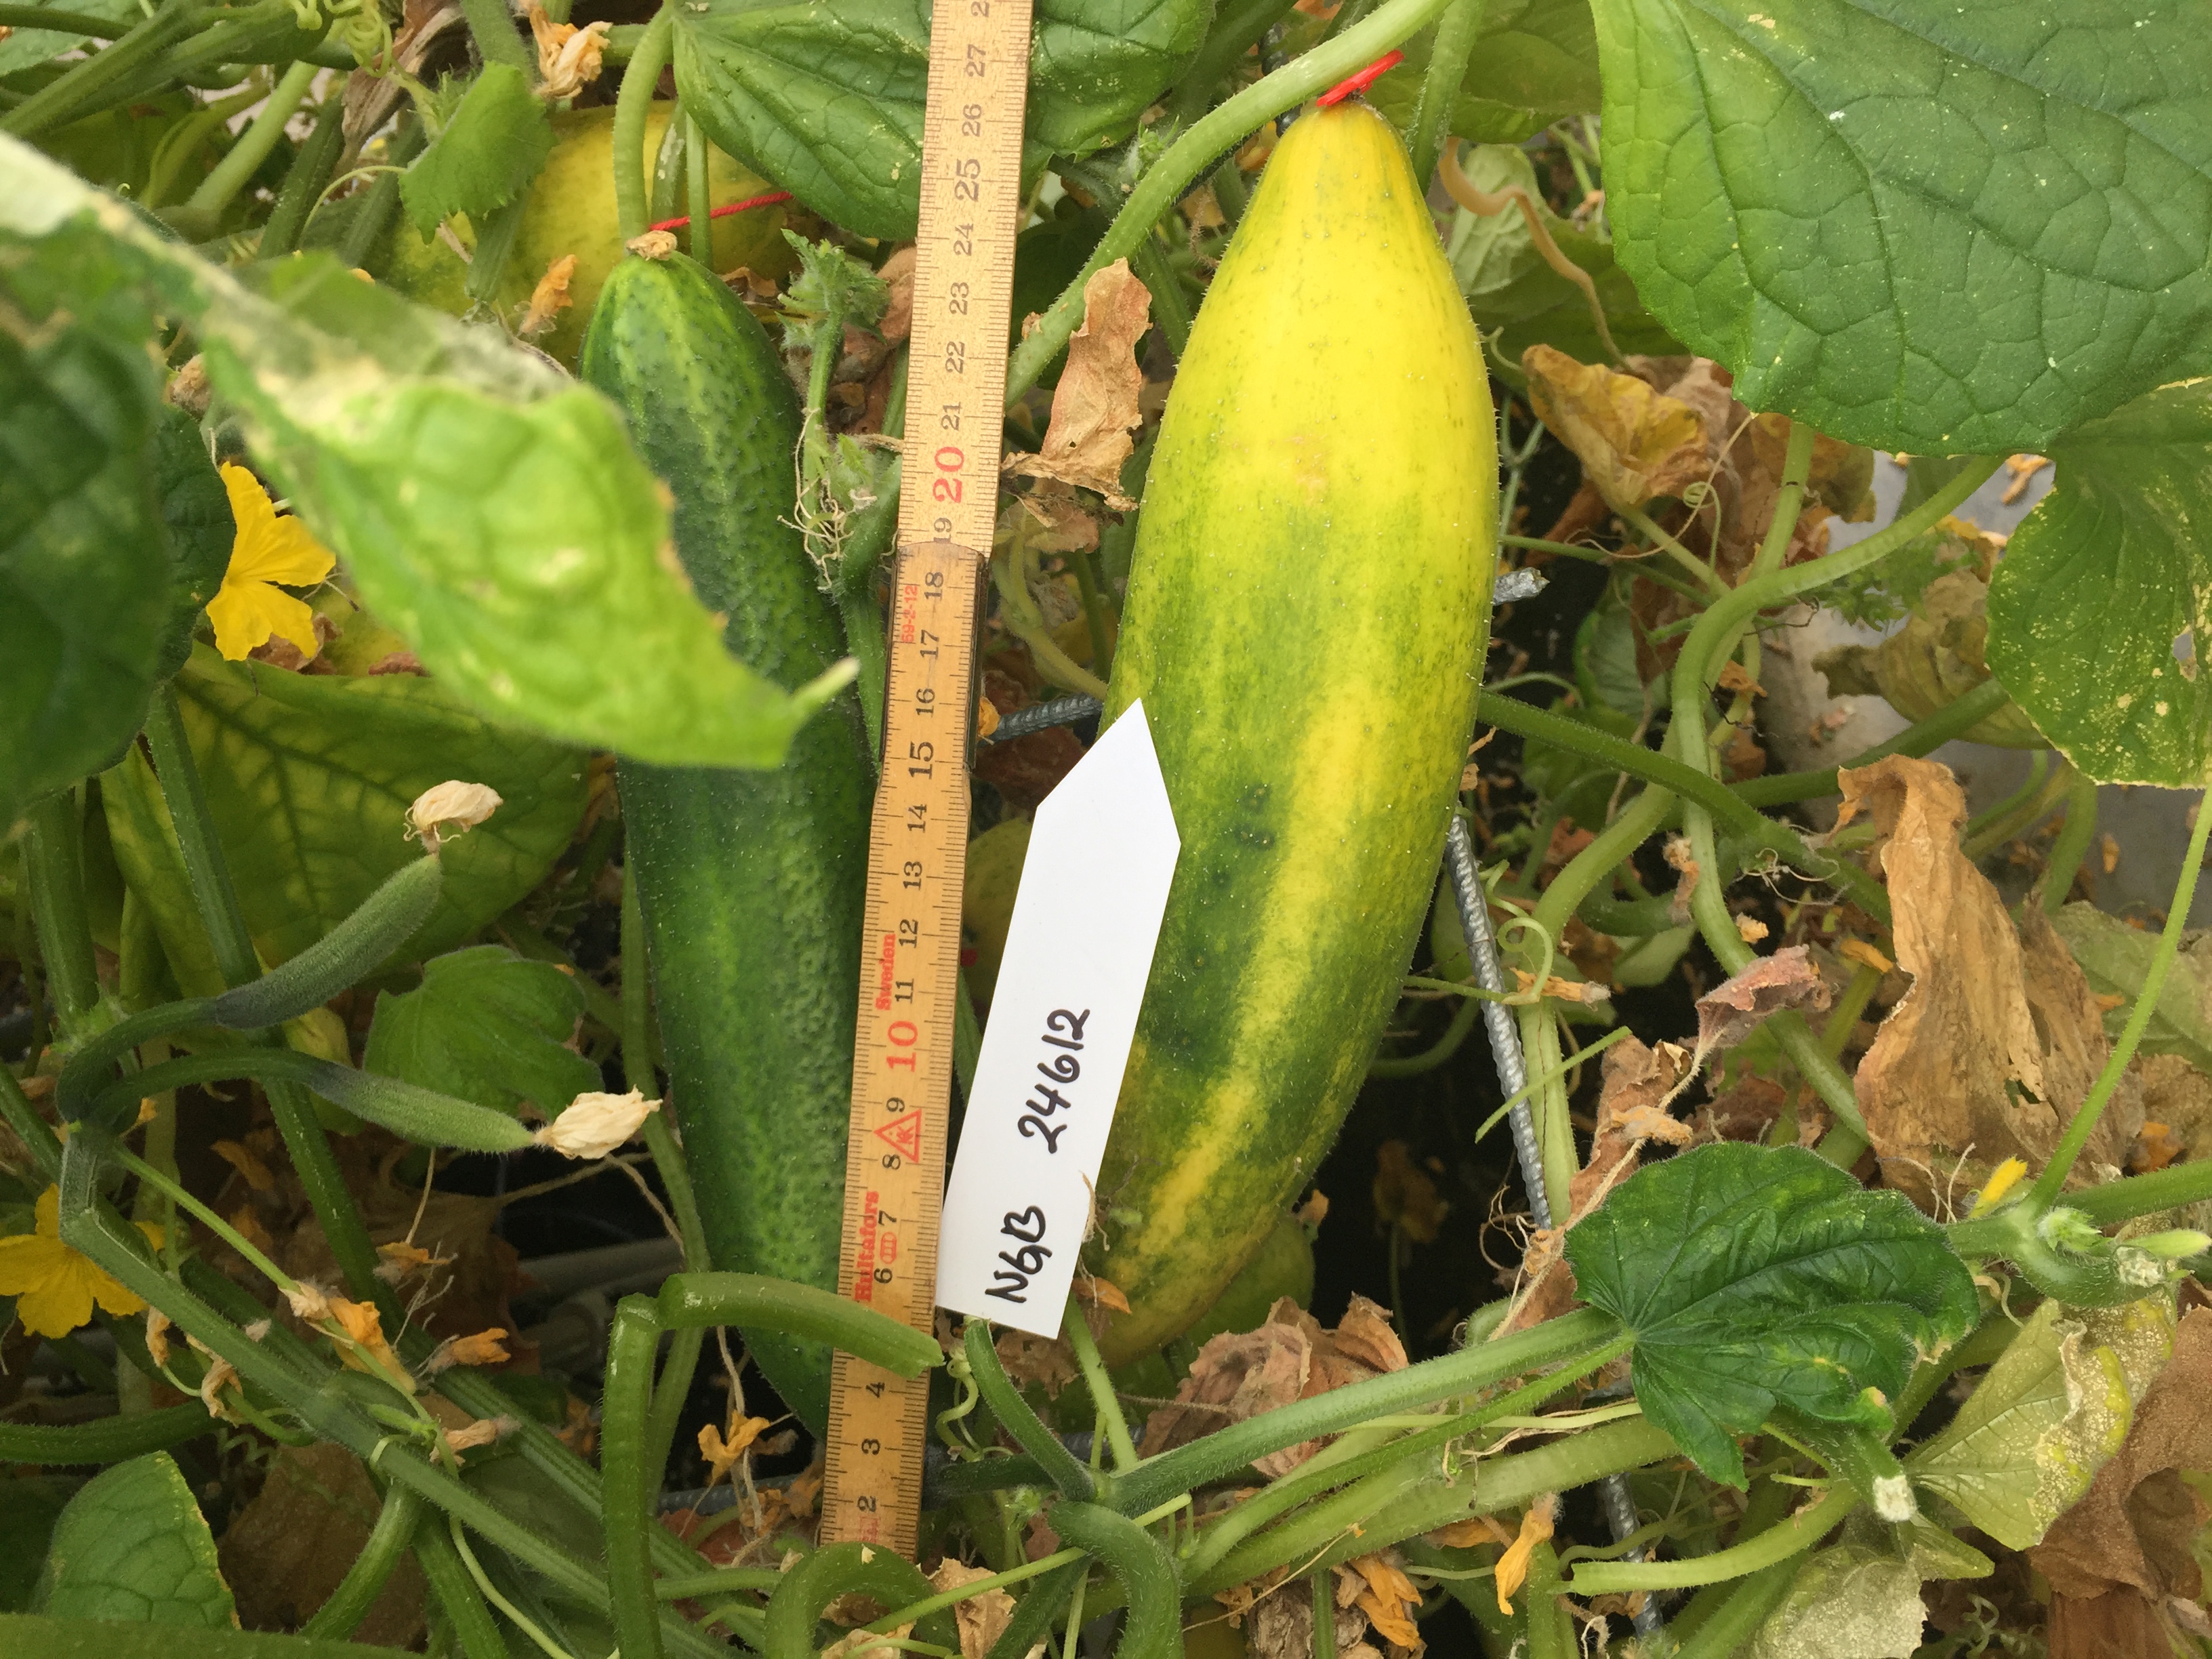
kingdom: Plantae
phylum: Tracheophyta
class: Magnoliopsida
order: Cucurbitales
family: Cucurbitaceae
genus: Cucumis
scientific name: Cucumis sativus
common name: Cucumber
